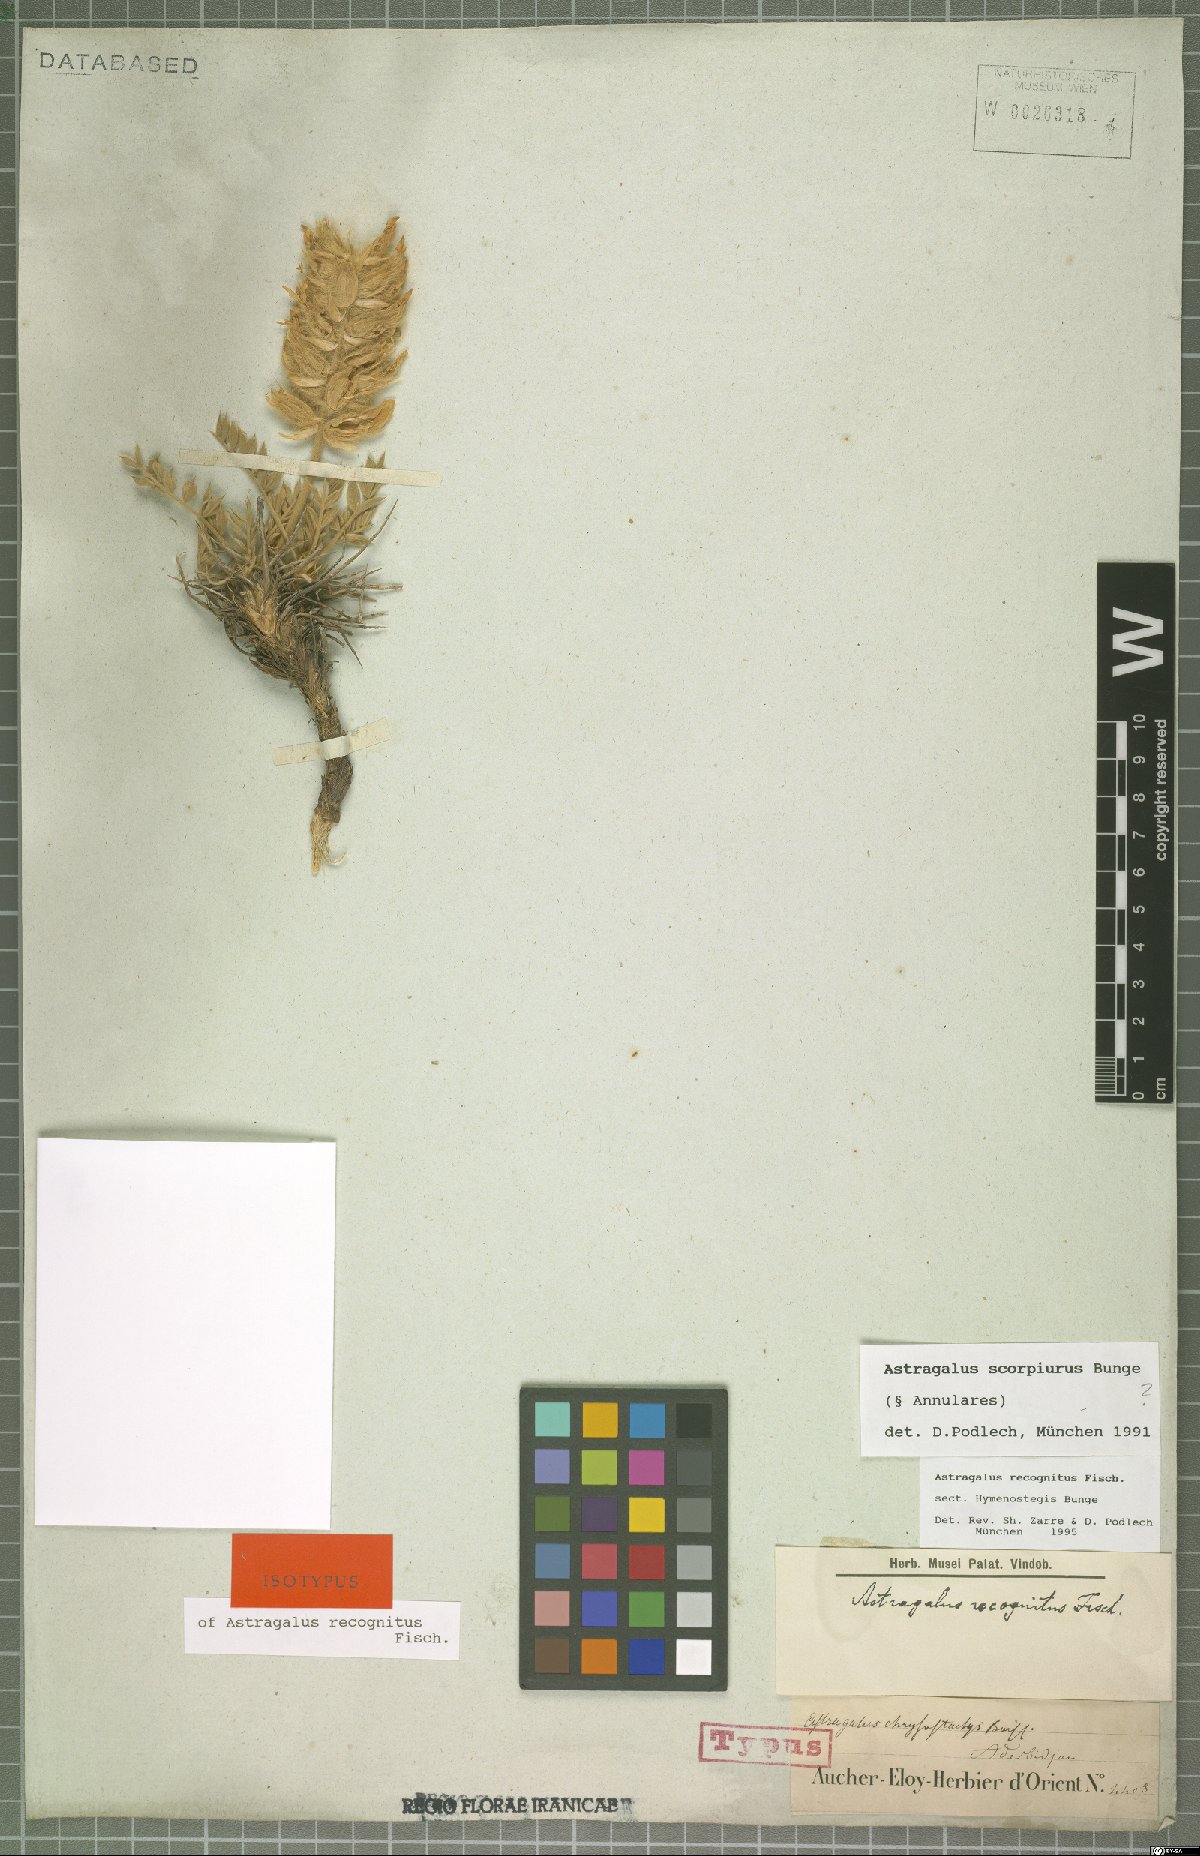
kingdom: Plantae
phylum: Tracheophyta
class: Magnoliopsida
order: Fabales
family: Fabaceae
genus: Astragalus
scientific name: Astragalus recognitus
